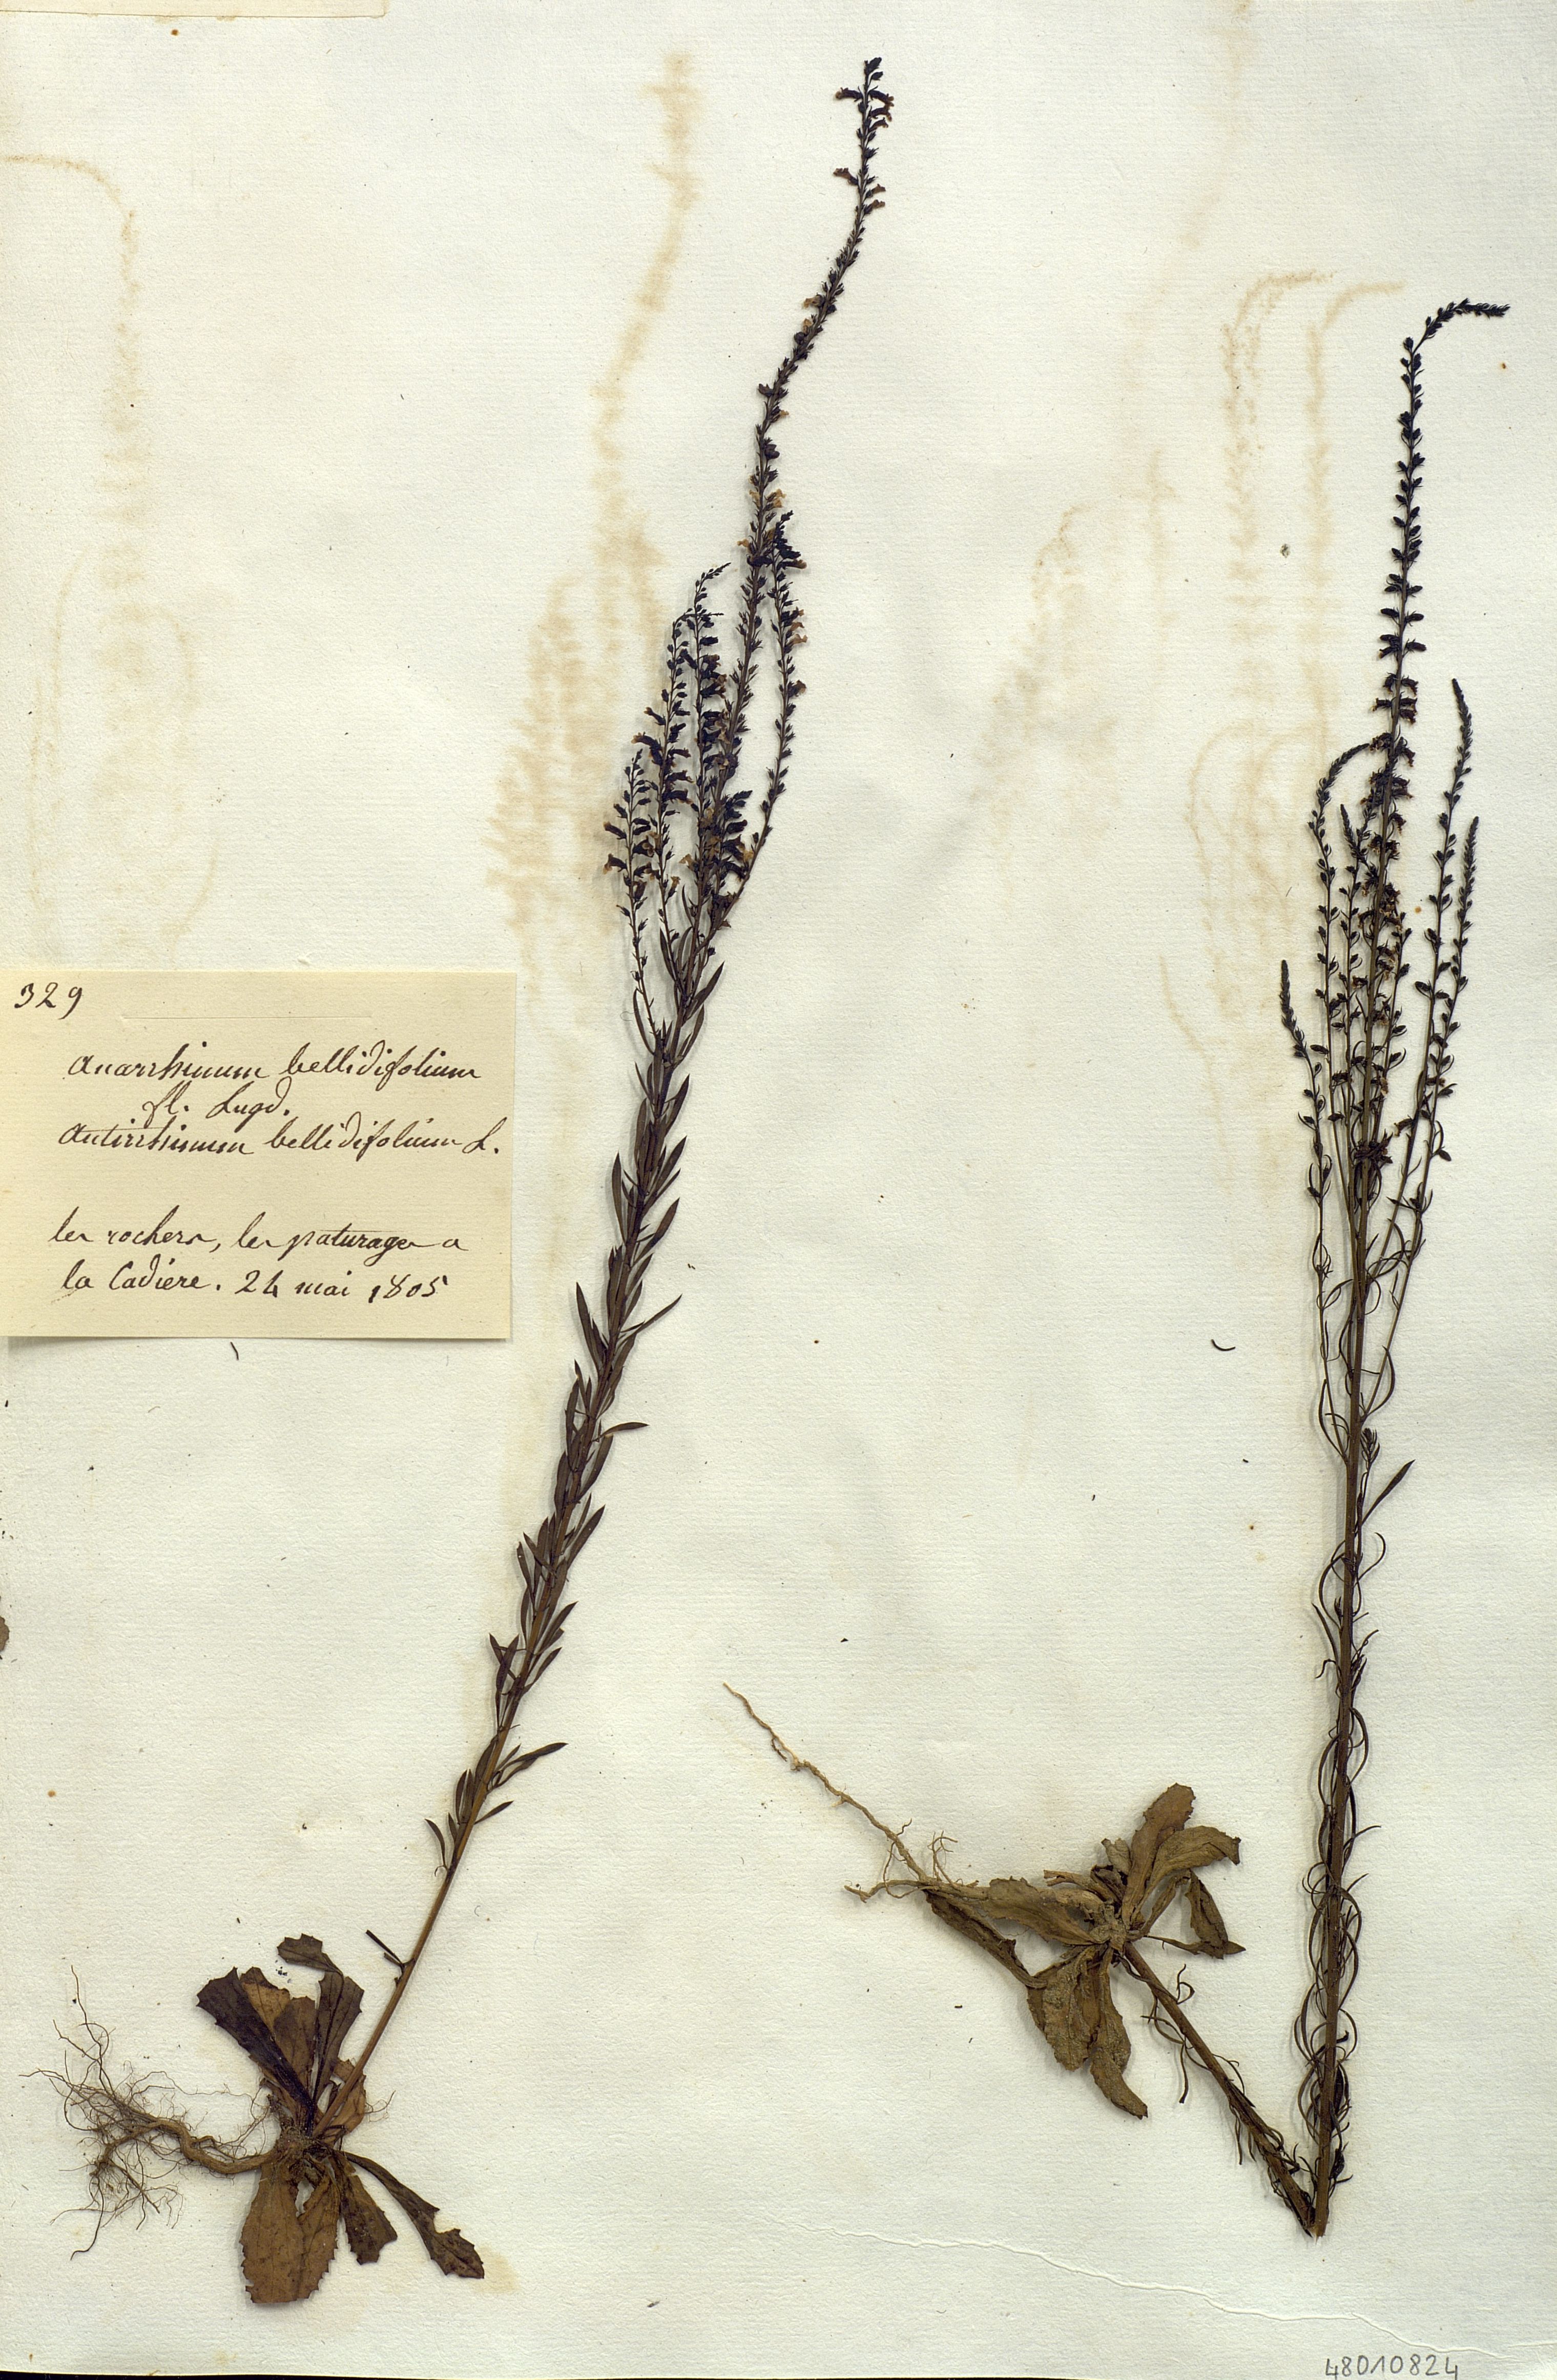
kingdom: Plantae
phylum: Tracheophyta
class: Magnoliopsida
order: Lamiales
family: Plantaginaceae
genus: Anarrhinum
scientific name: Anarrhinum bellidifolium
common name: Daisy-leaved toadflax
